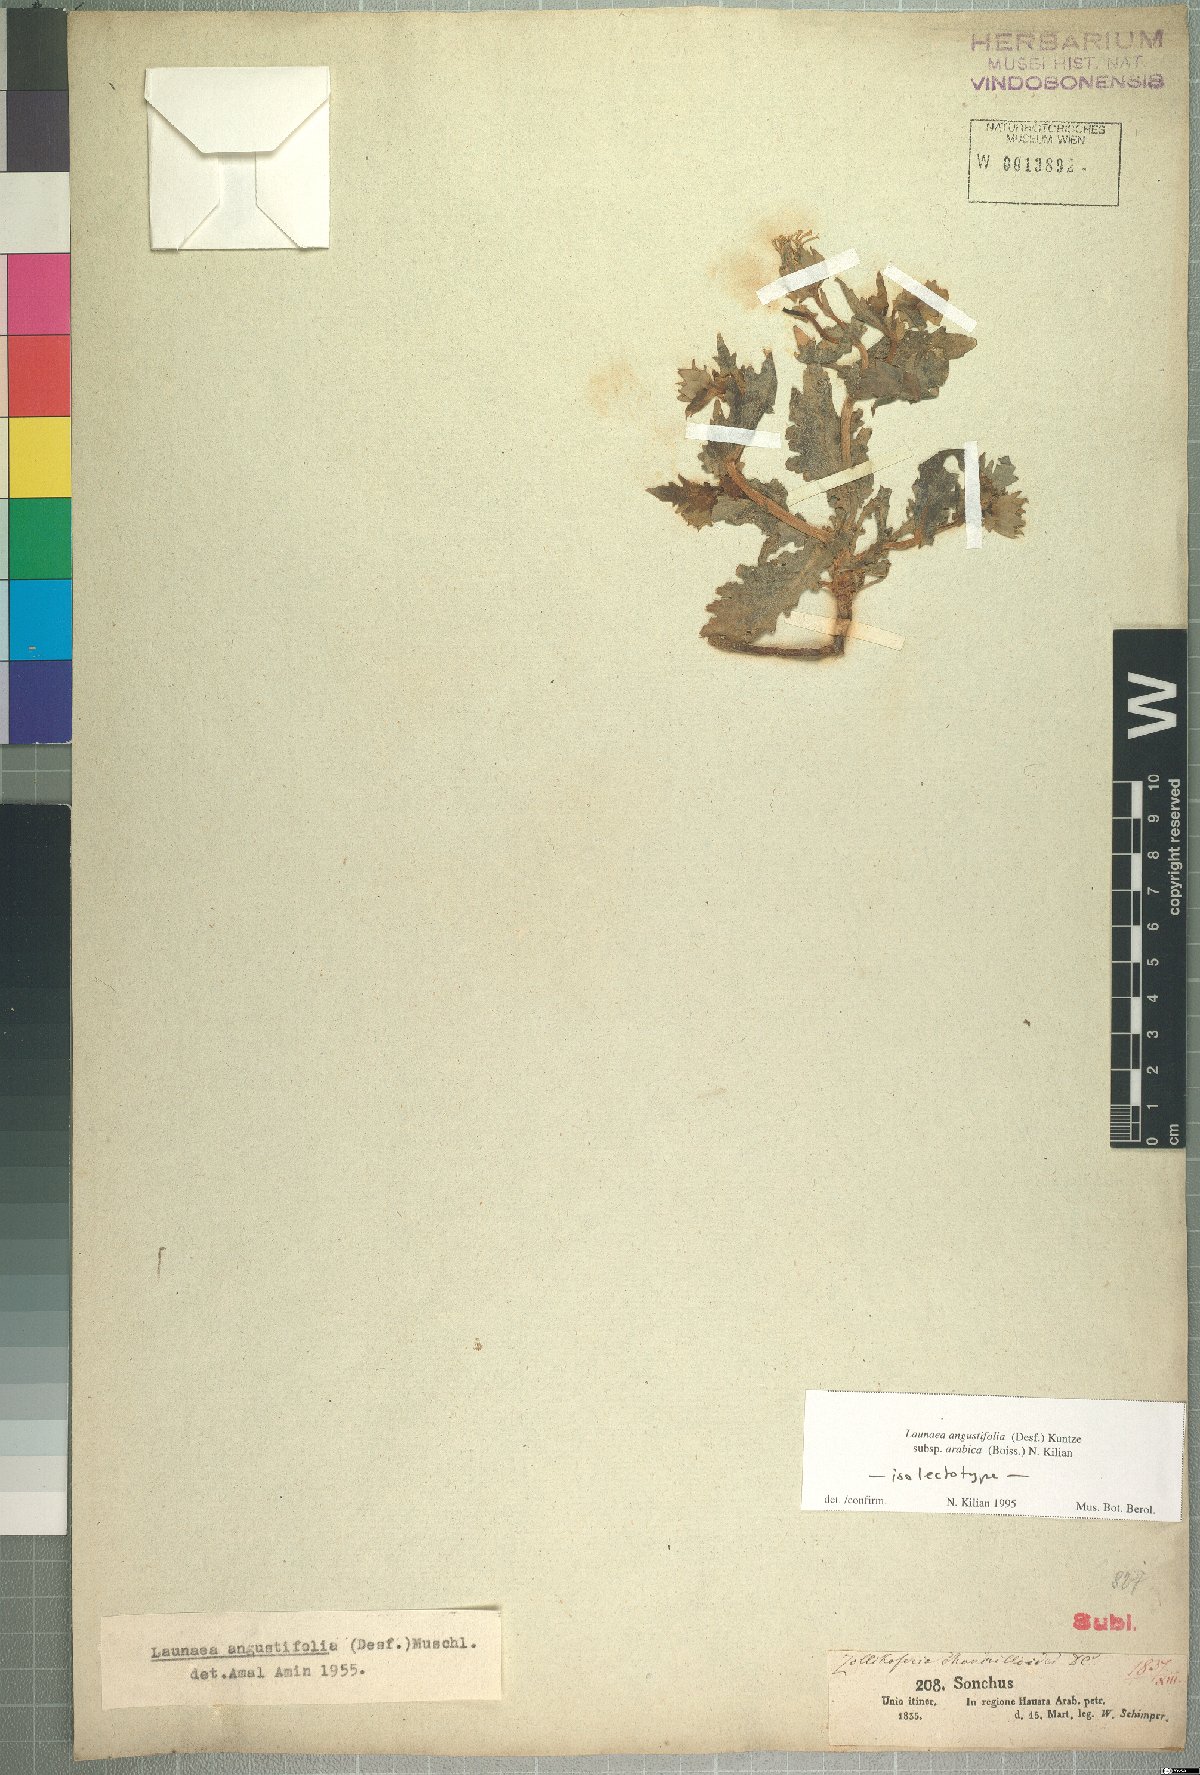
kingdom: Plantae
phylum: Tracheophyta
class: Magnoliopsida
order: Asterales
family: Asteraceae
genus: Launaea
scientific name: Launaea angustifolia
